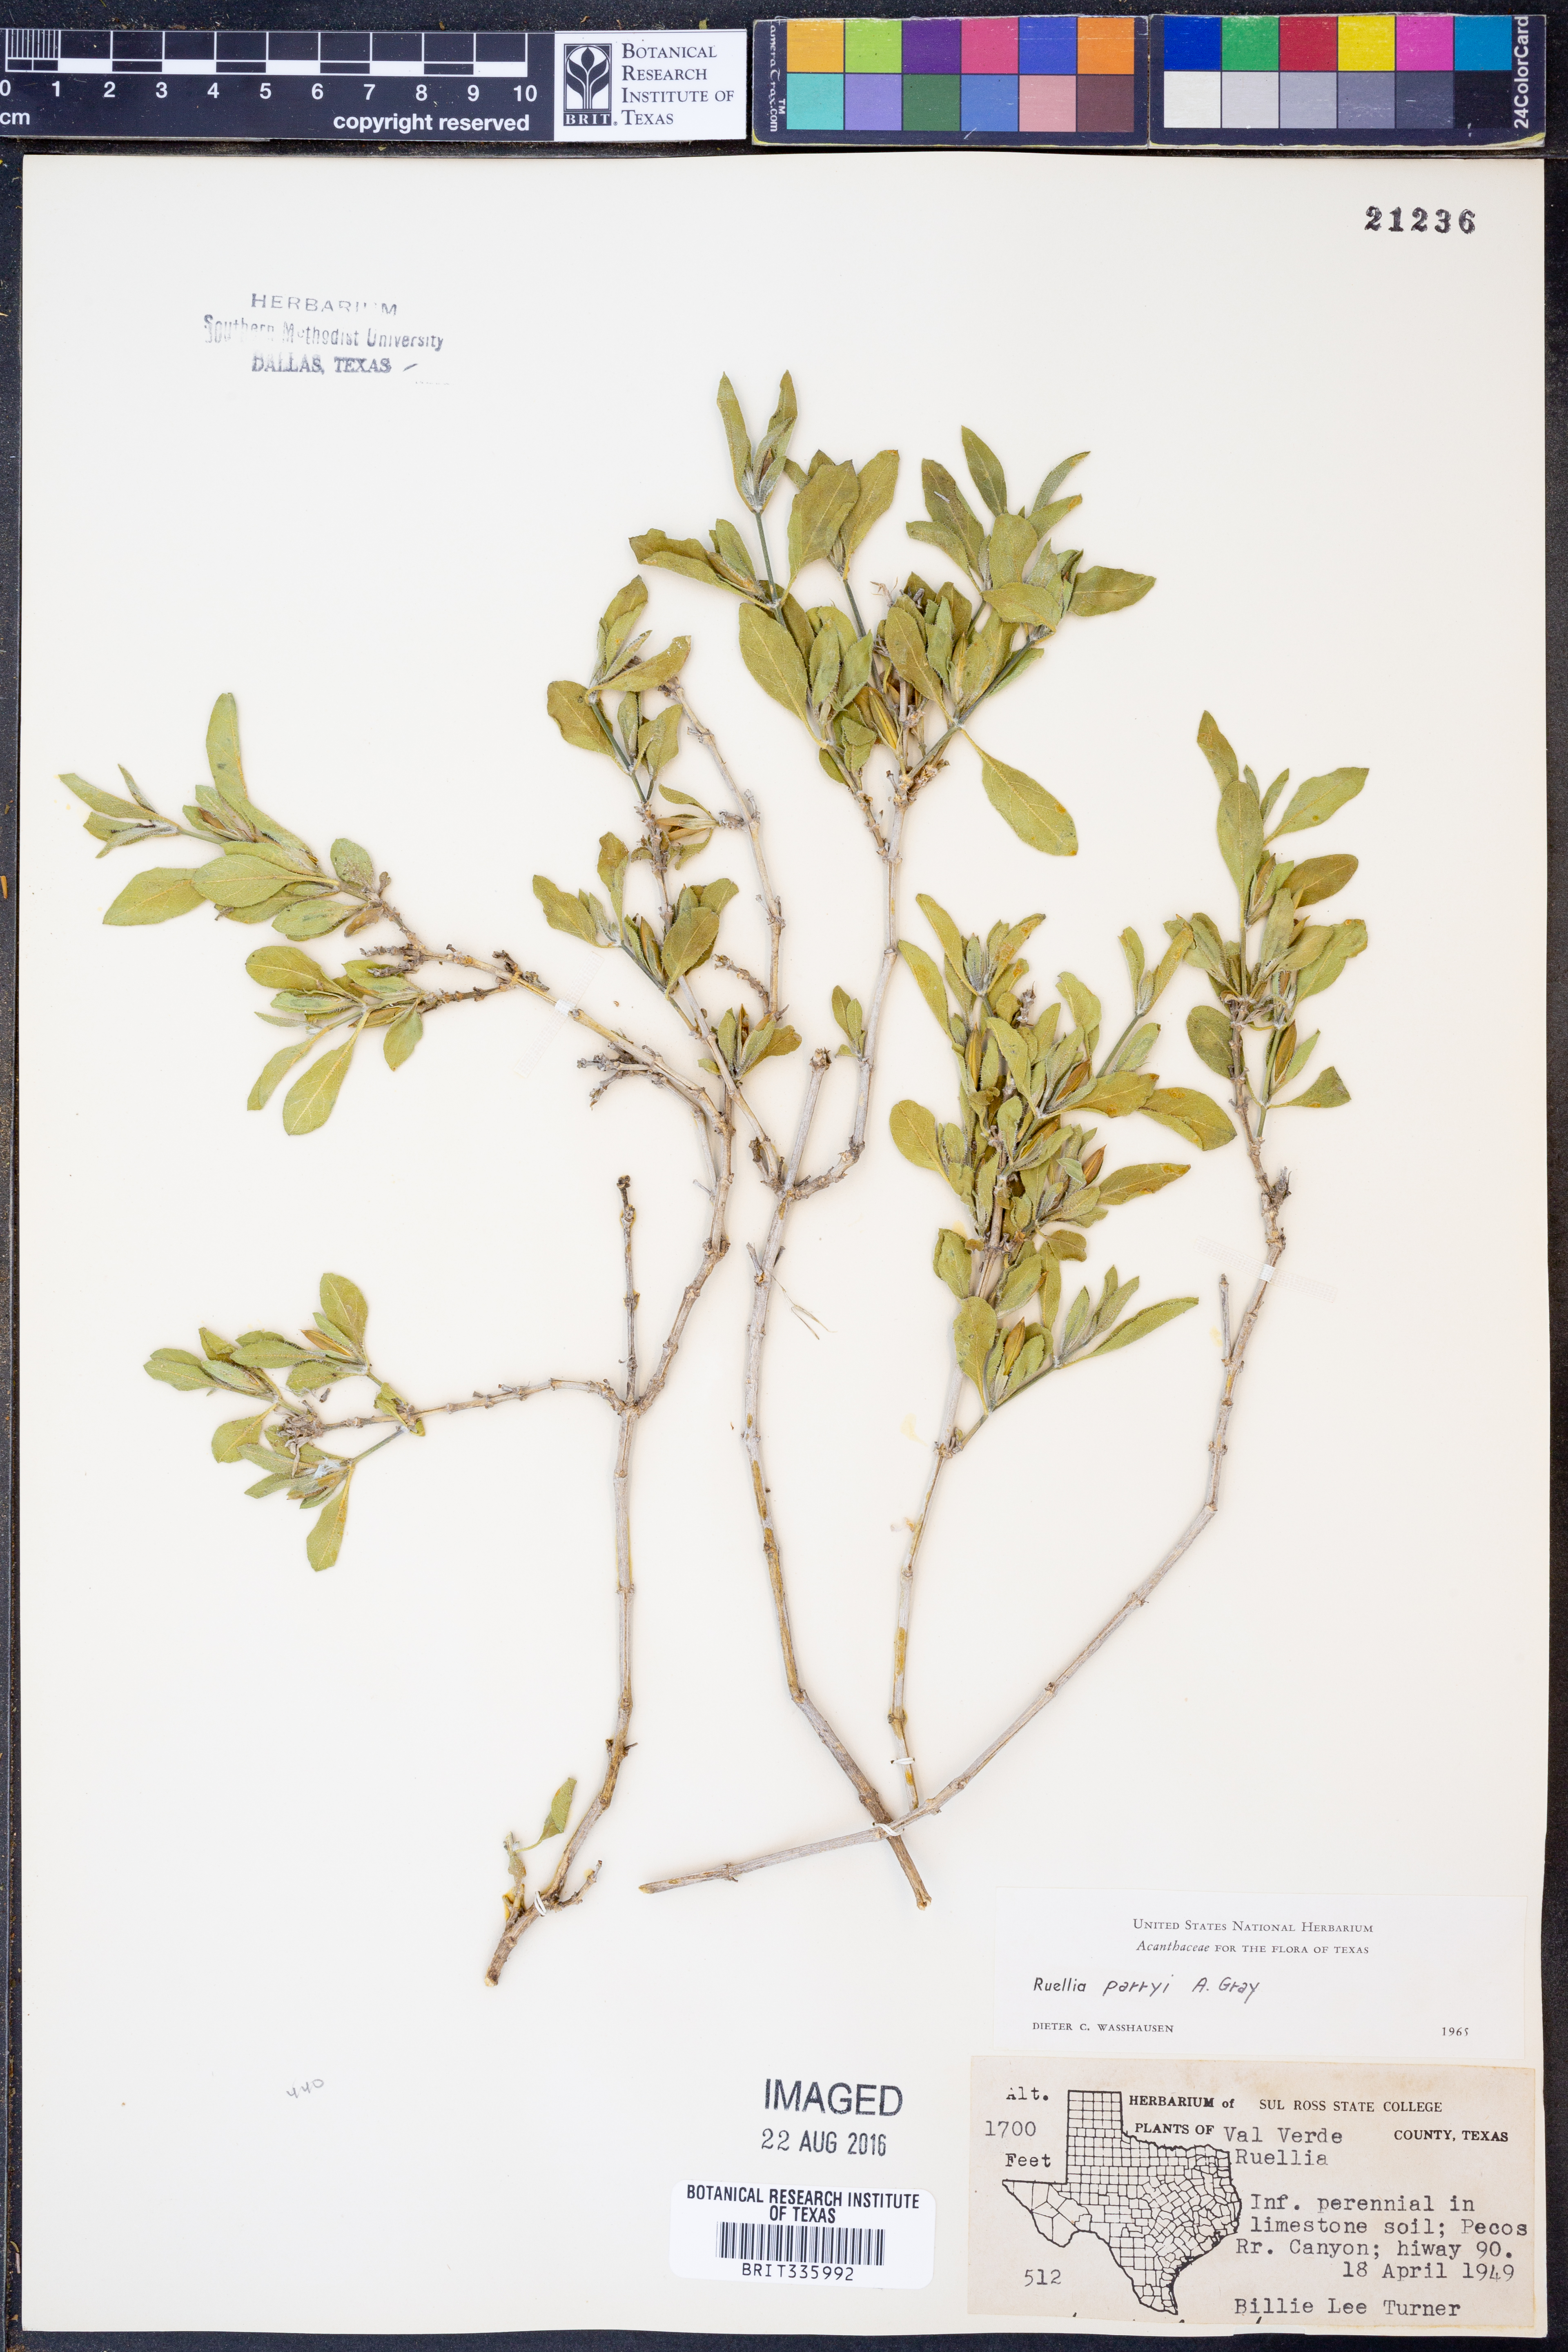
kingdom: Plantae
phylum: Tracheophyta
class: Magnoliopsida
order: Lamiales
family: Acanthaceae
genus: Ruellia
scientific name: Ruellia parryi
